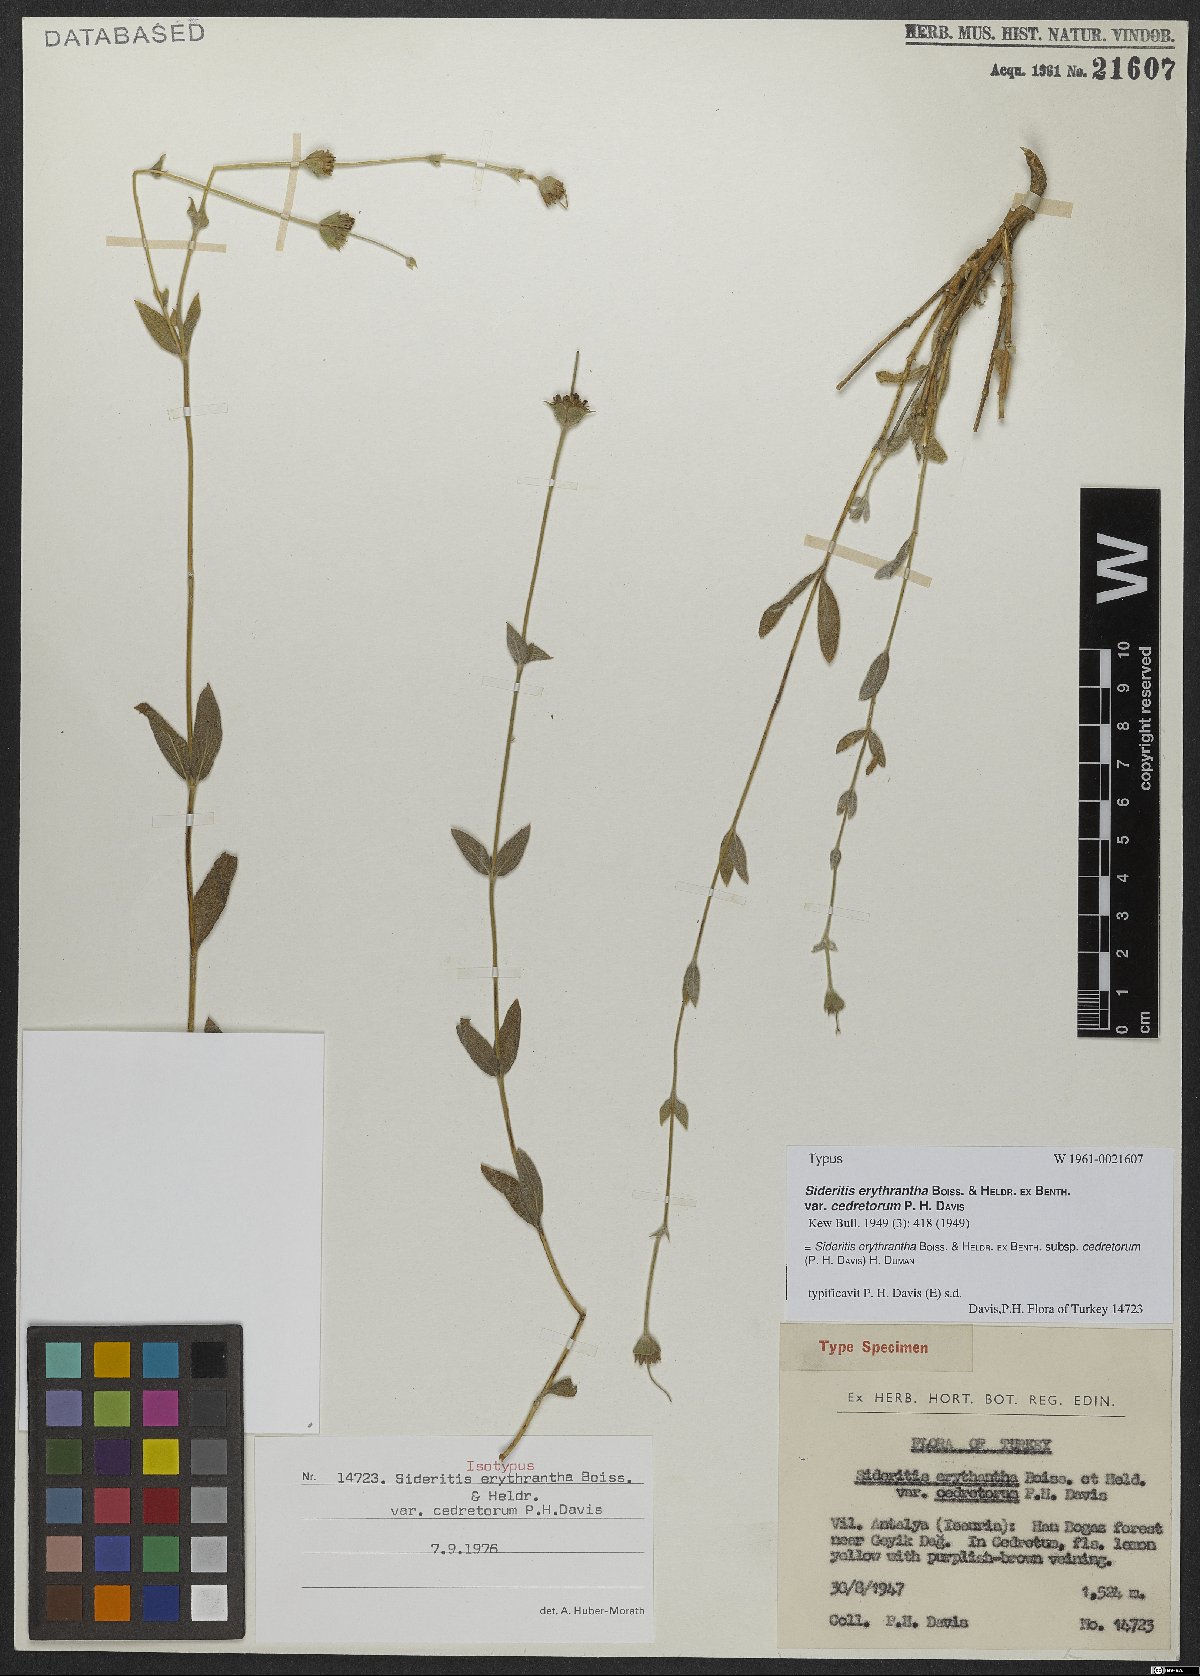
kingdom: Plantae
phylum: Tracheophyta
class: Magnoliopsida
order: Lamiales
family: Lamiaceae
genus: Sideritis
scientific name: Sideritis erythrantha
